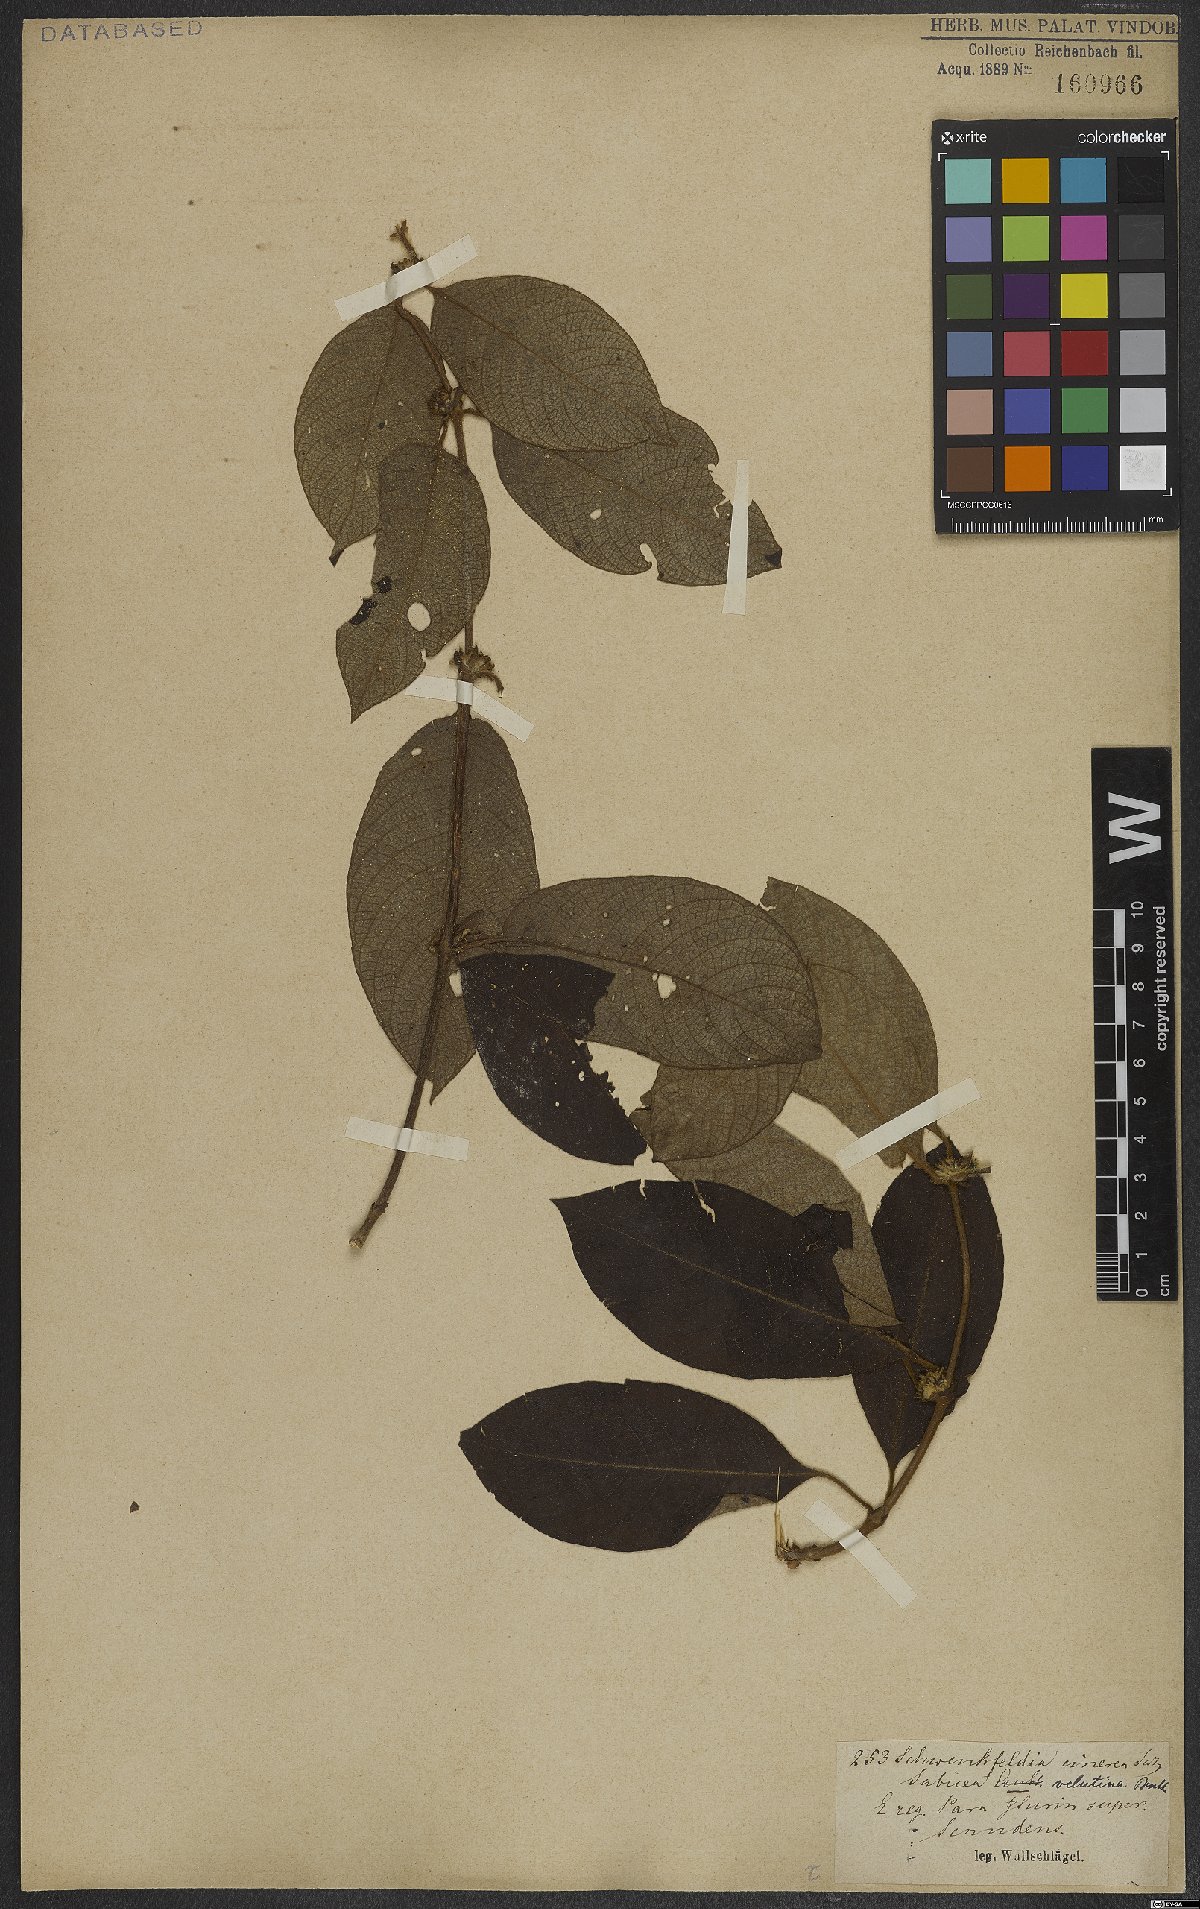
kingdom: Plantae
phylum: Tracheophyta
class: Magnoliopsida
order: Gentianales
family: Rubiaceae
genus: Sabicea
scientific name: Sabicea velutina
